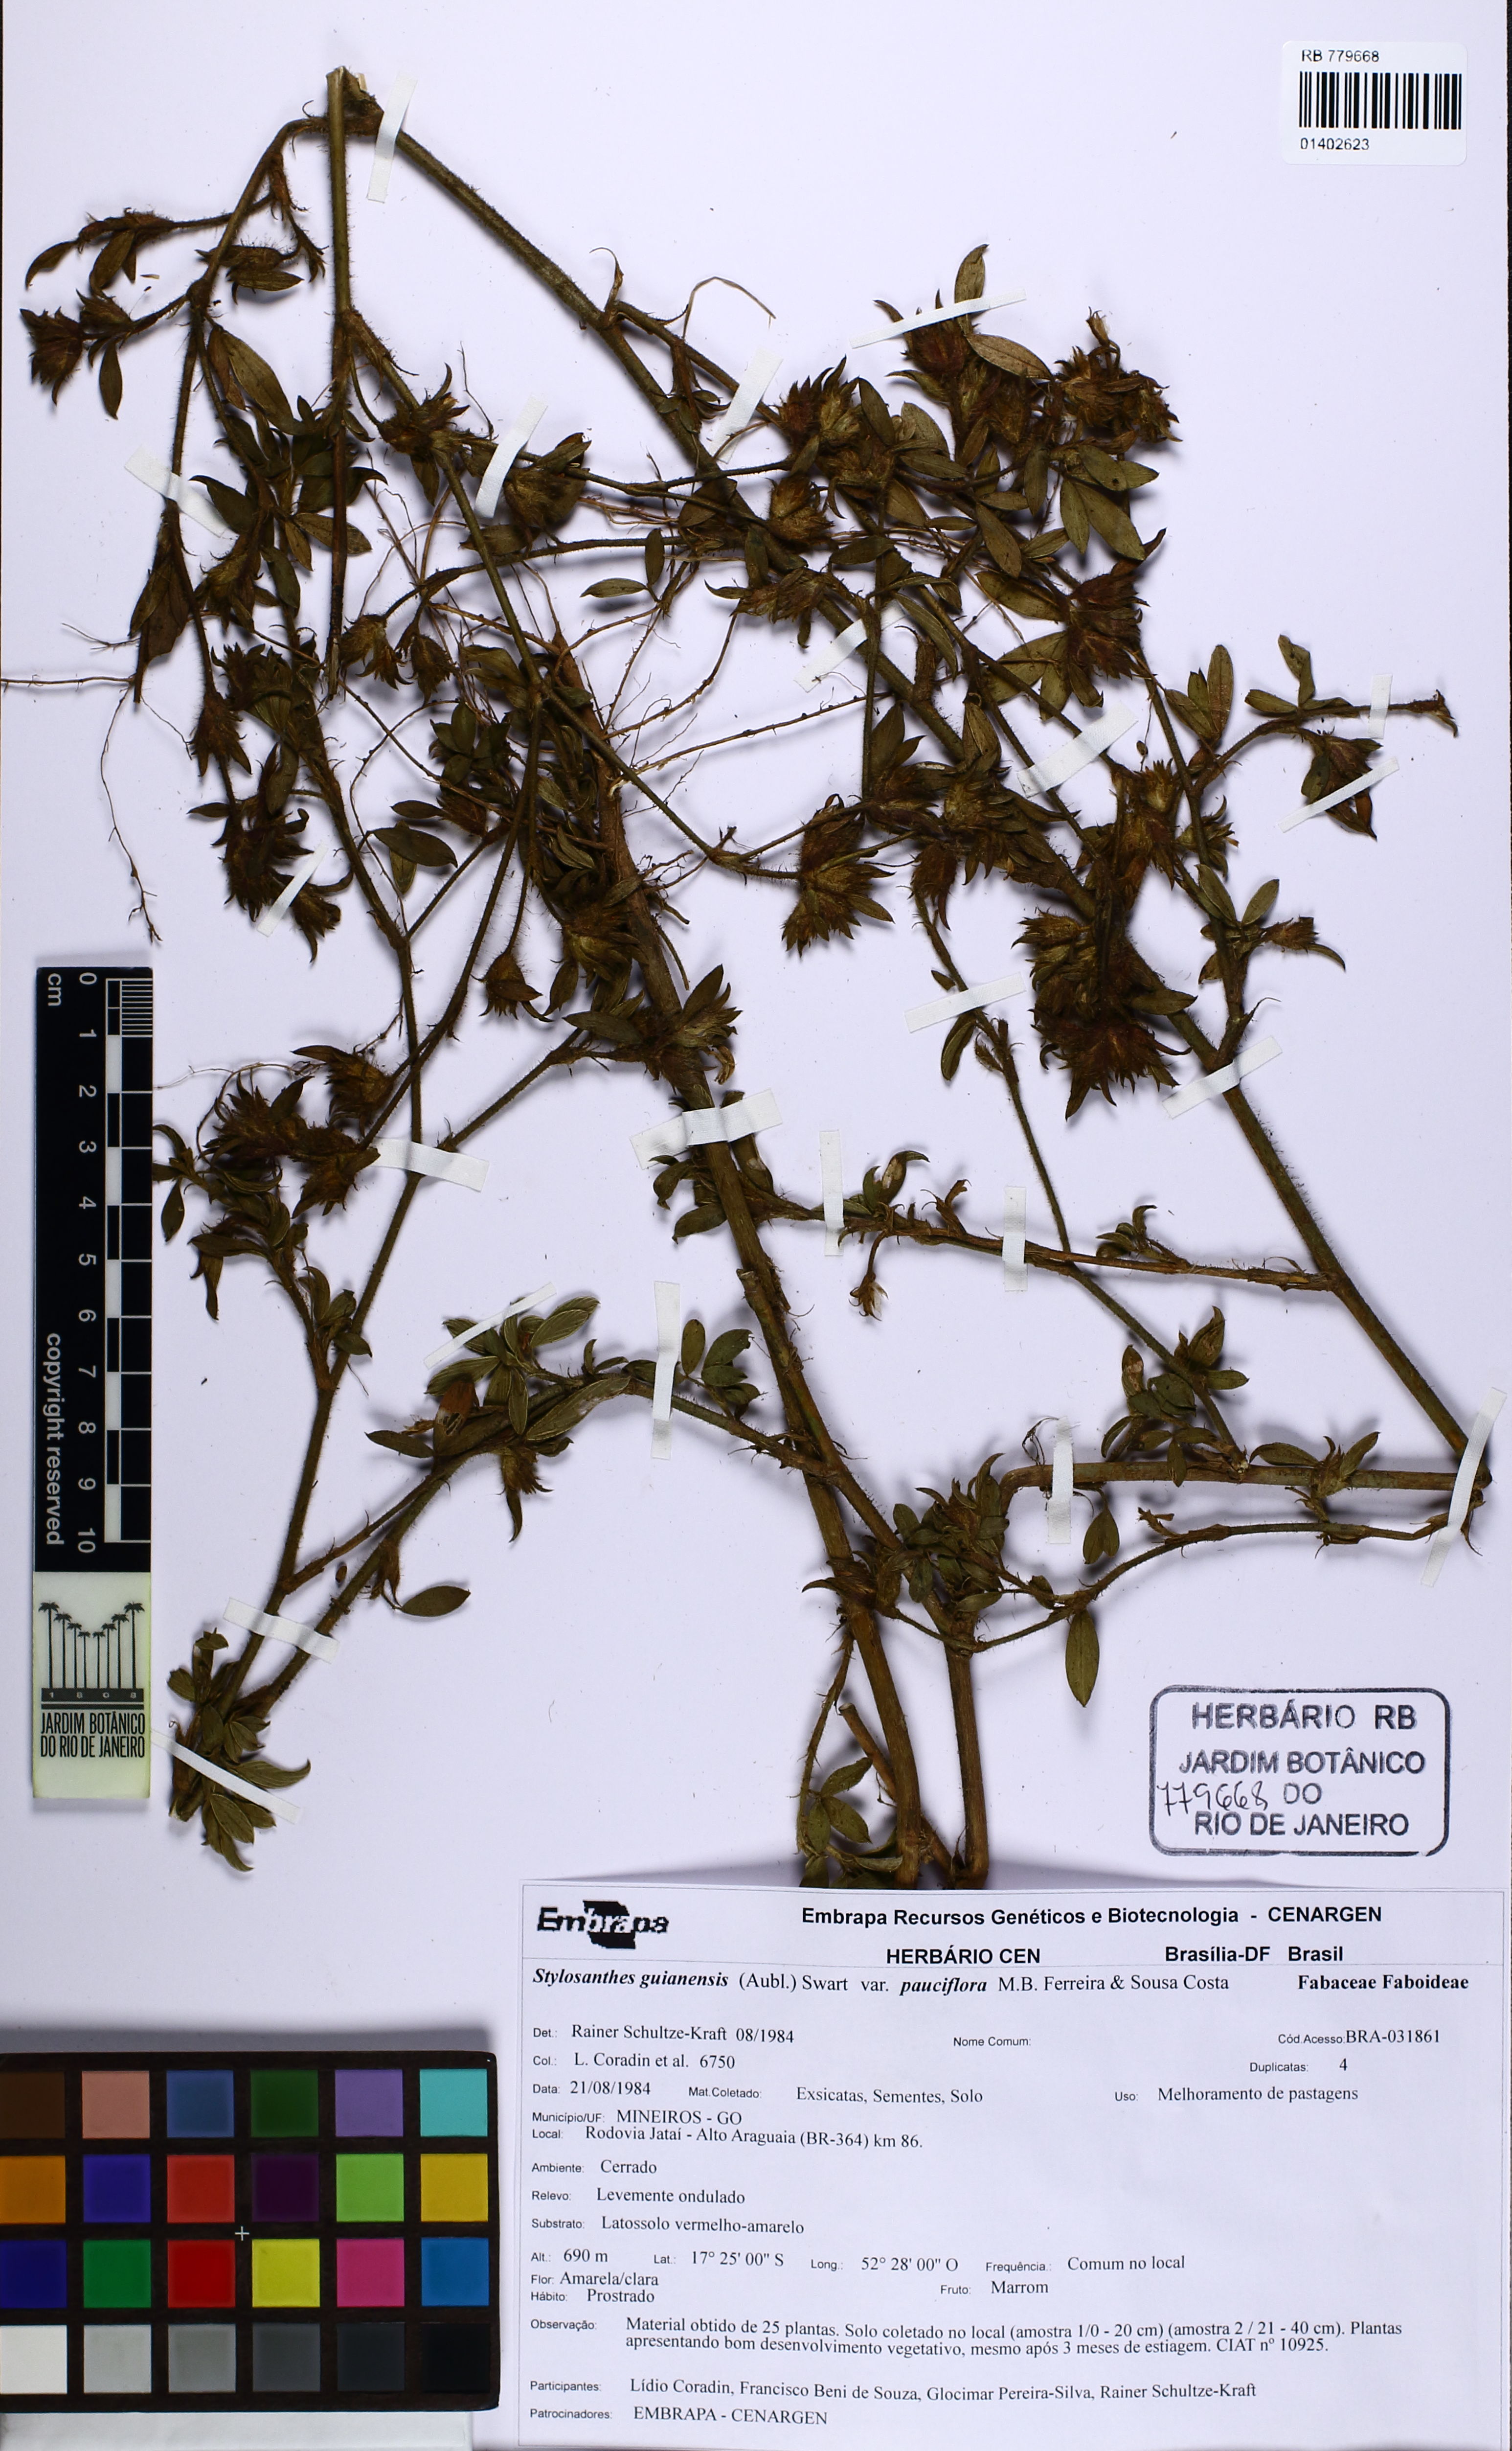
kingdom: Plantae
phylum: Tracheophyta
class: Magnoliopsida
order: Fabales
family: Fabaceae
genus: Stylosanthes
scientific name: Stylosanthes guianensis
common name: Pencil flower
